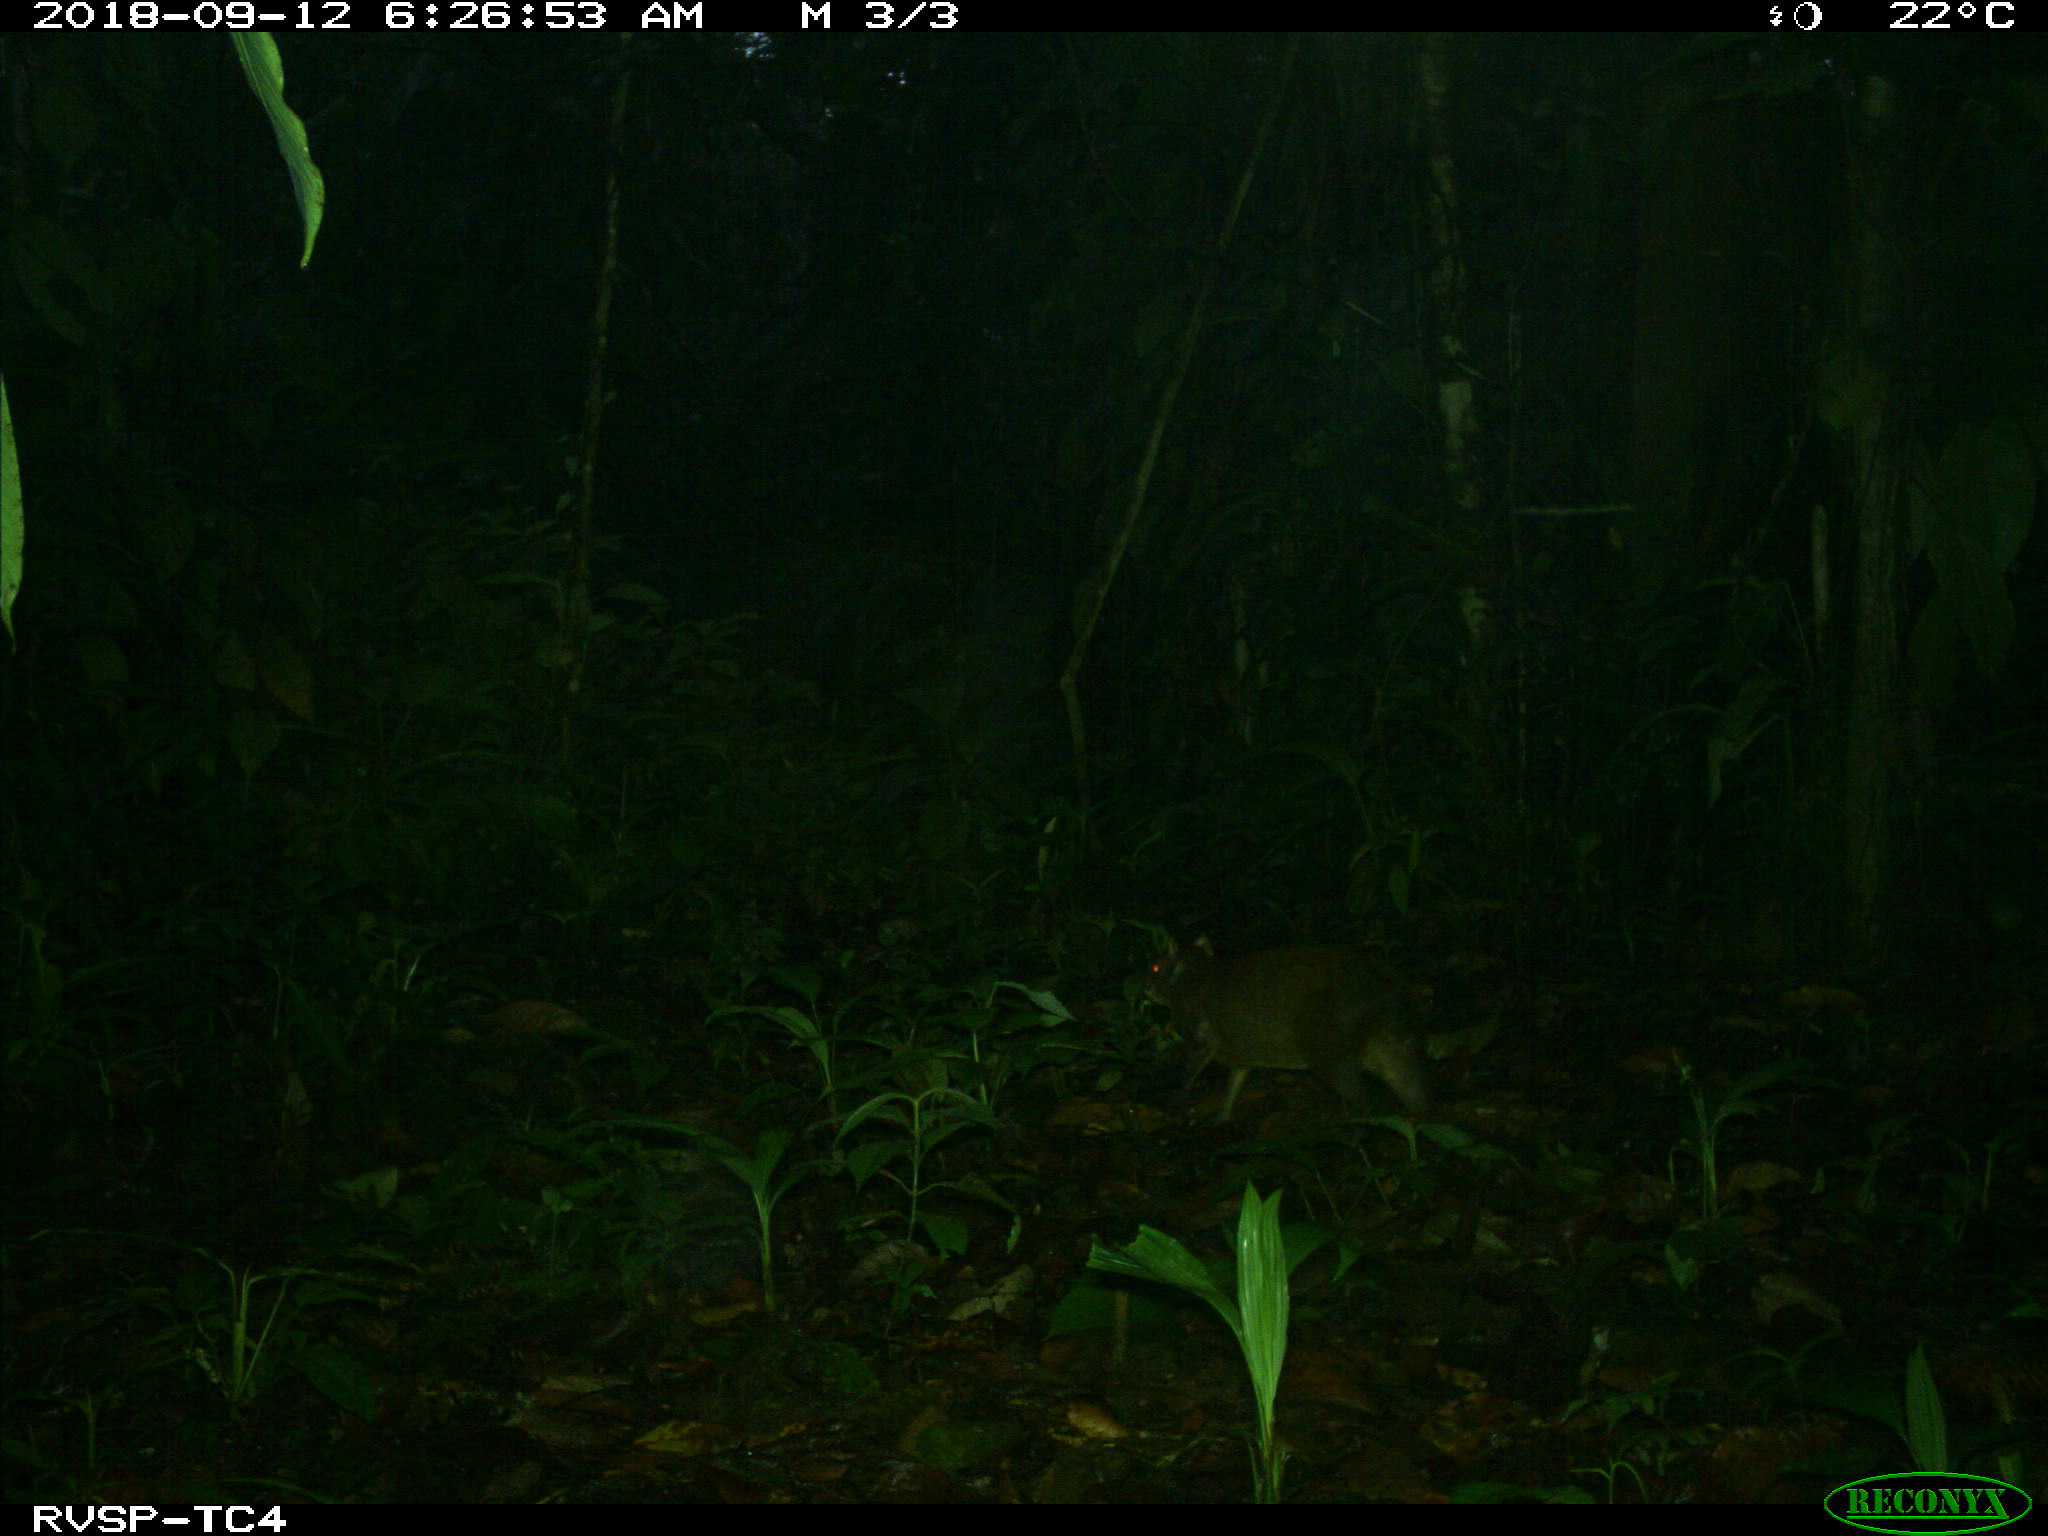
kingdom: Animalia
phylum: Chordata
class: Mammalia
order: Rodentia
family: Dasyproctidae
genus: Dasyprocta
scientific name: Dasyprocta punctata
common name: Central american agouti
